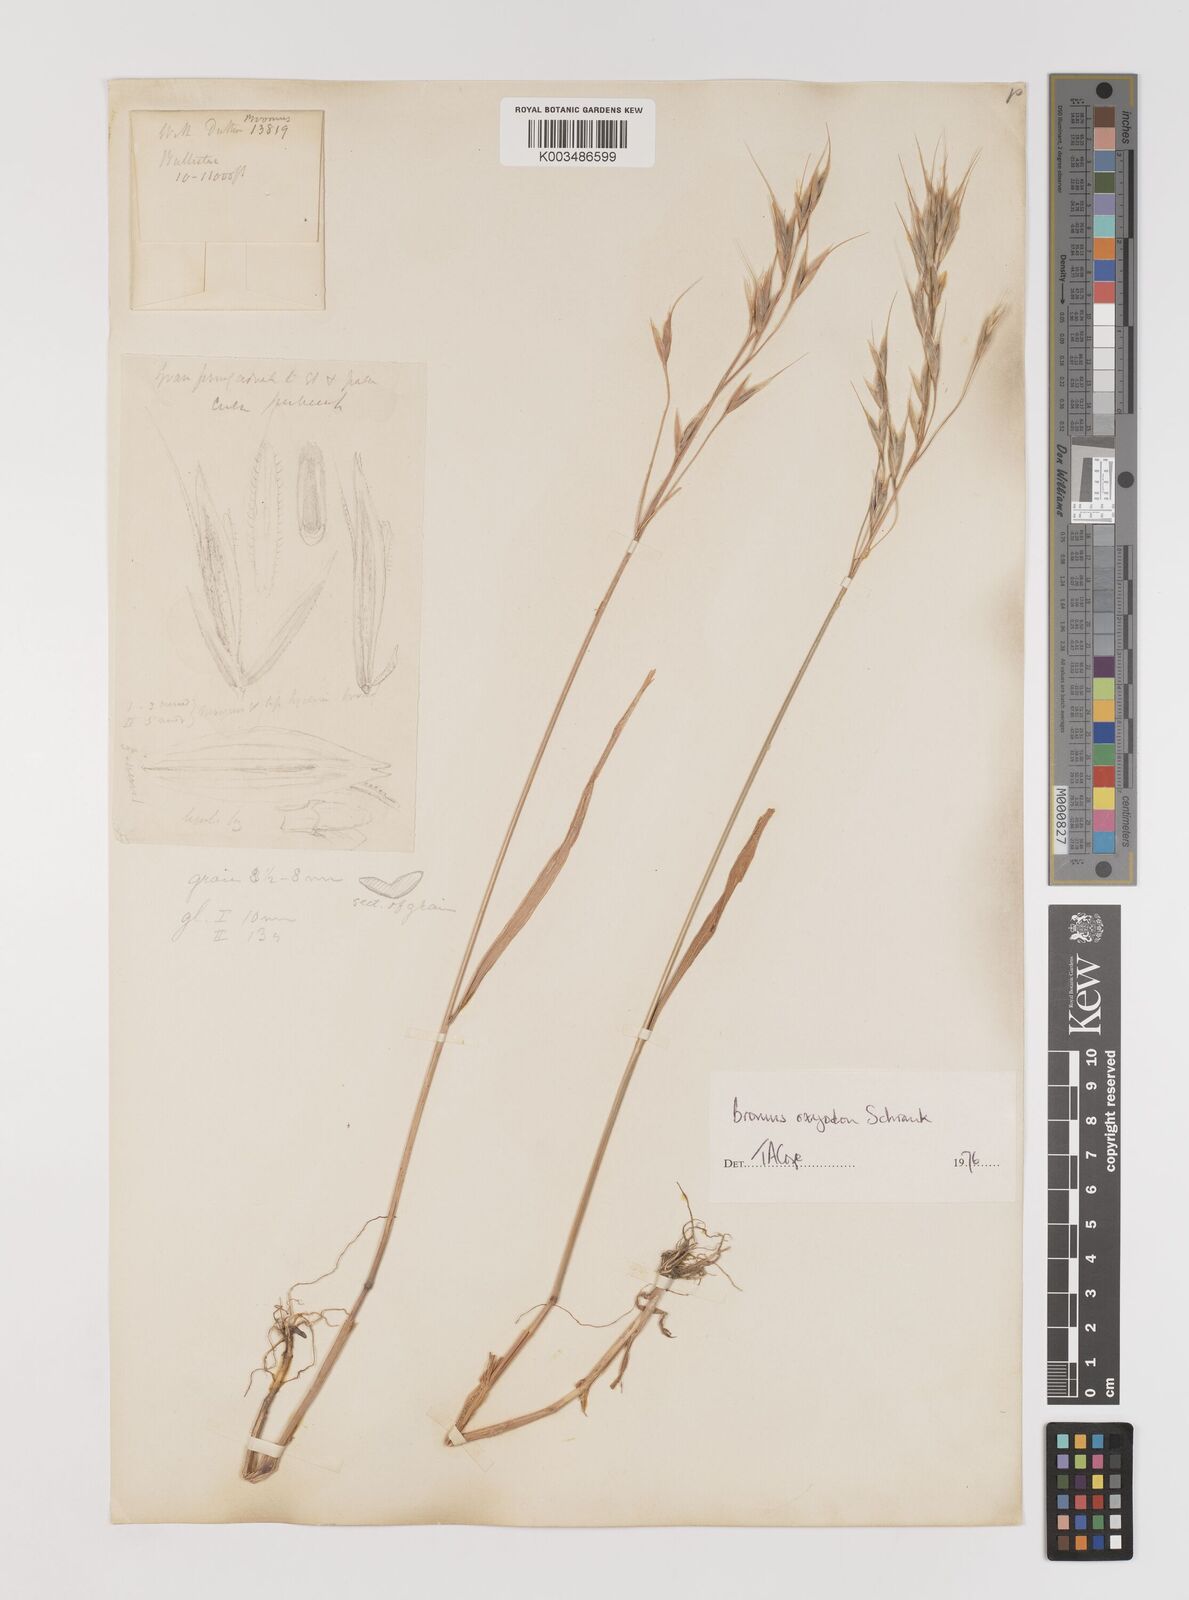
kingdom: Plantae
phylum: Tracheophyta
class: Liliopsida
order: Poales
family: Poaceae
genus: Bromus
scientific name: Bromus oxyodon
